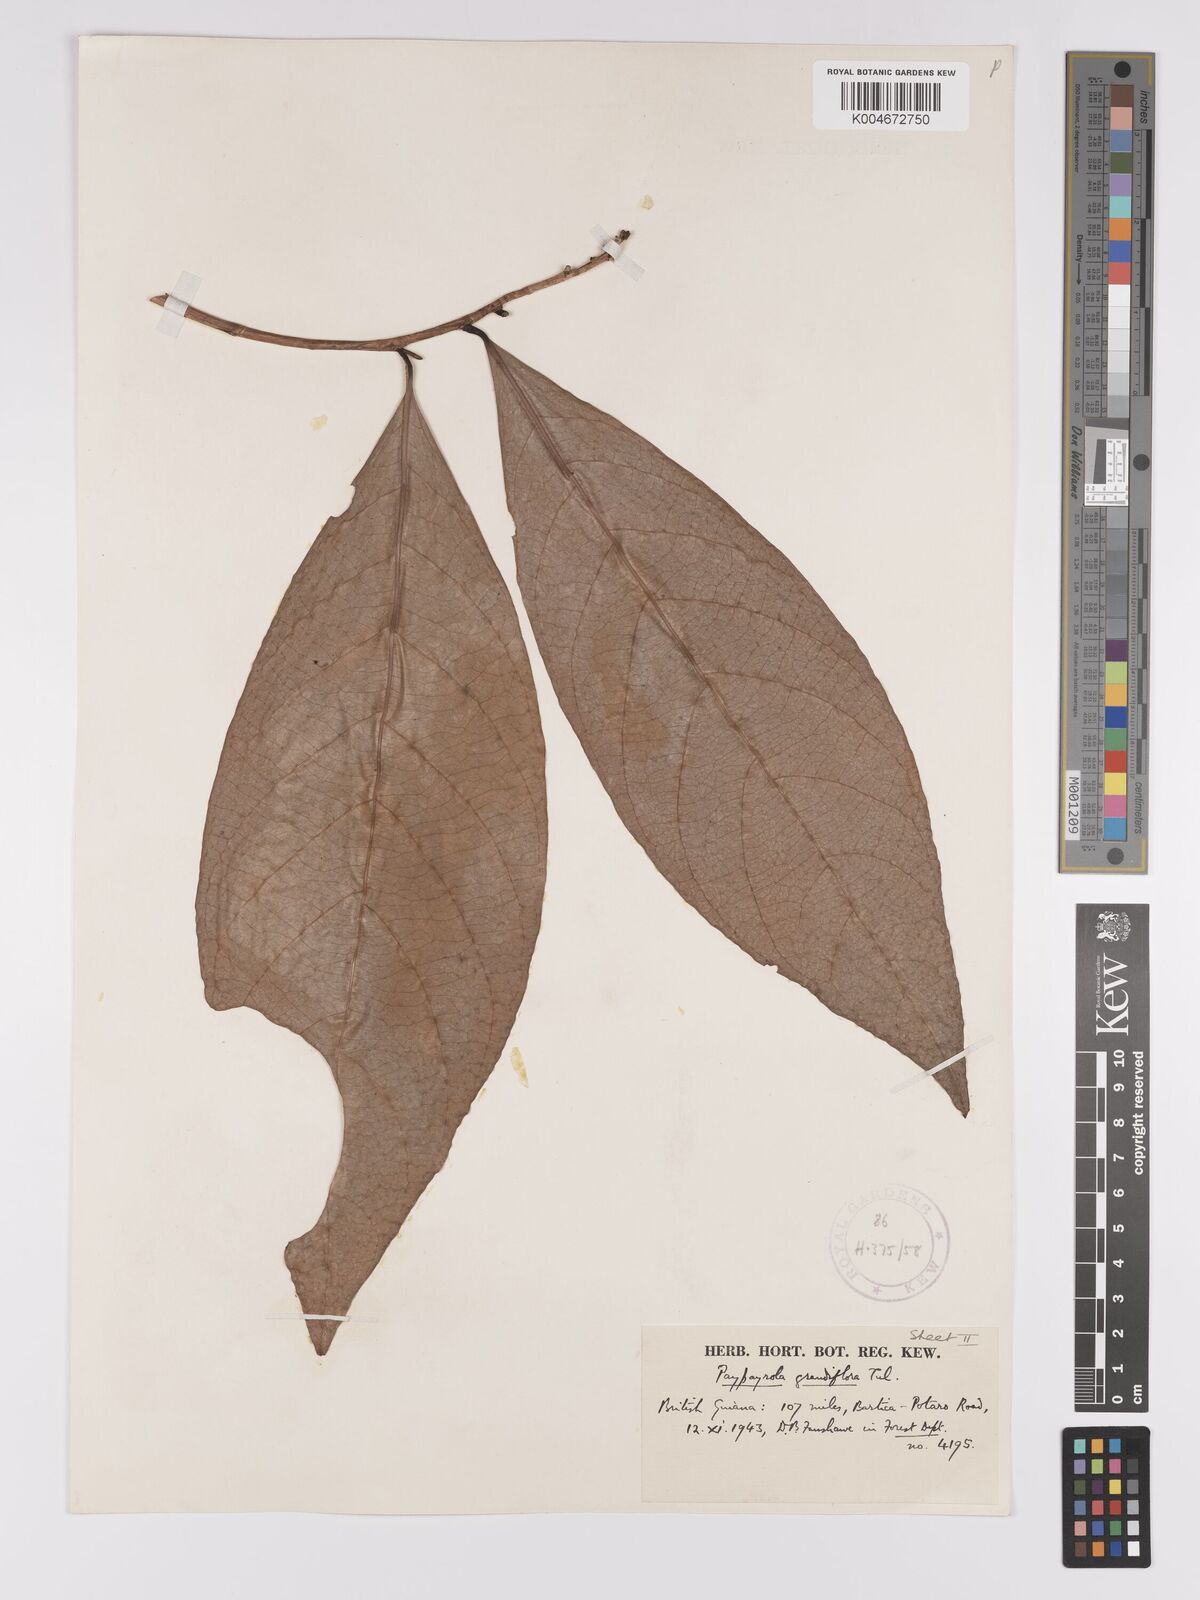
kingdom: Plantae
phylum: Tracheophyta
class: Magnoliopsida
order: Malpighiales
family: Violaceae
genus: Paypayrola
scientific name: Paypayrola grandiflora
